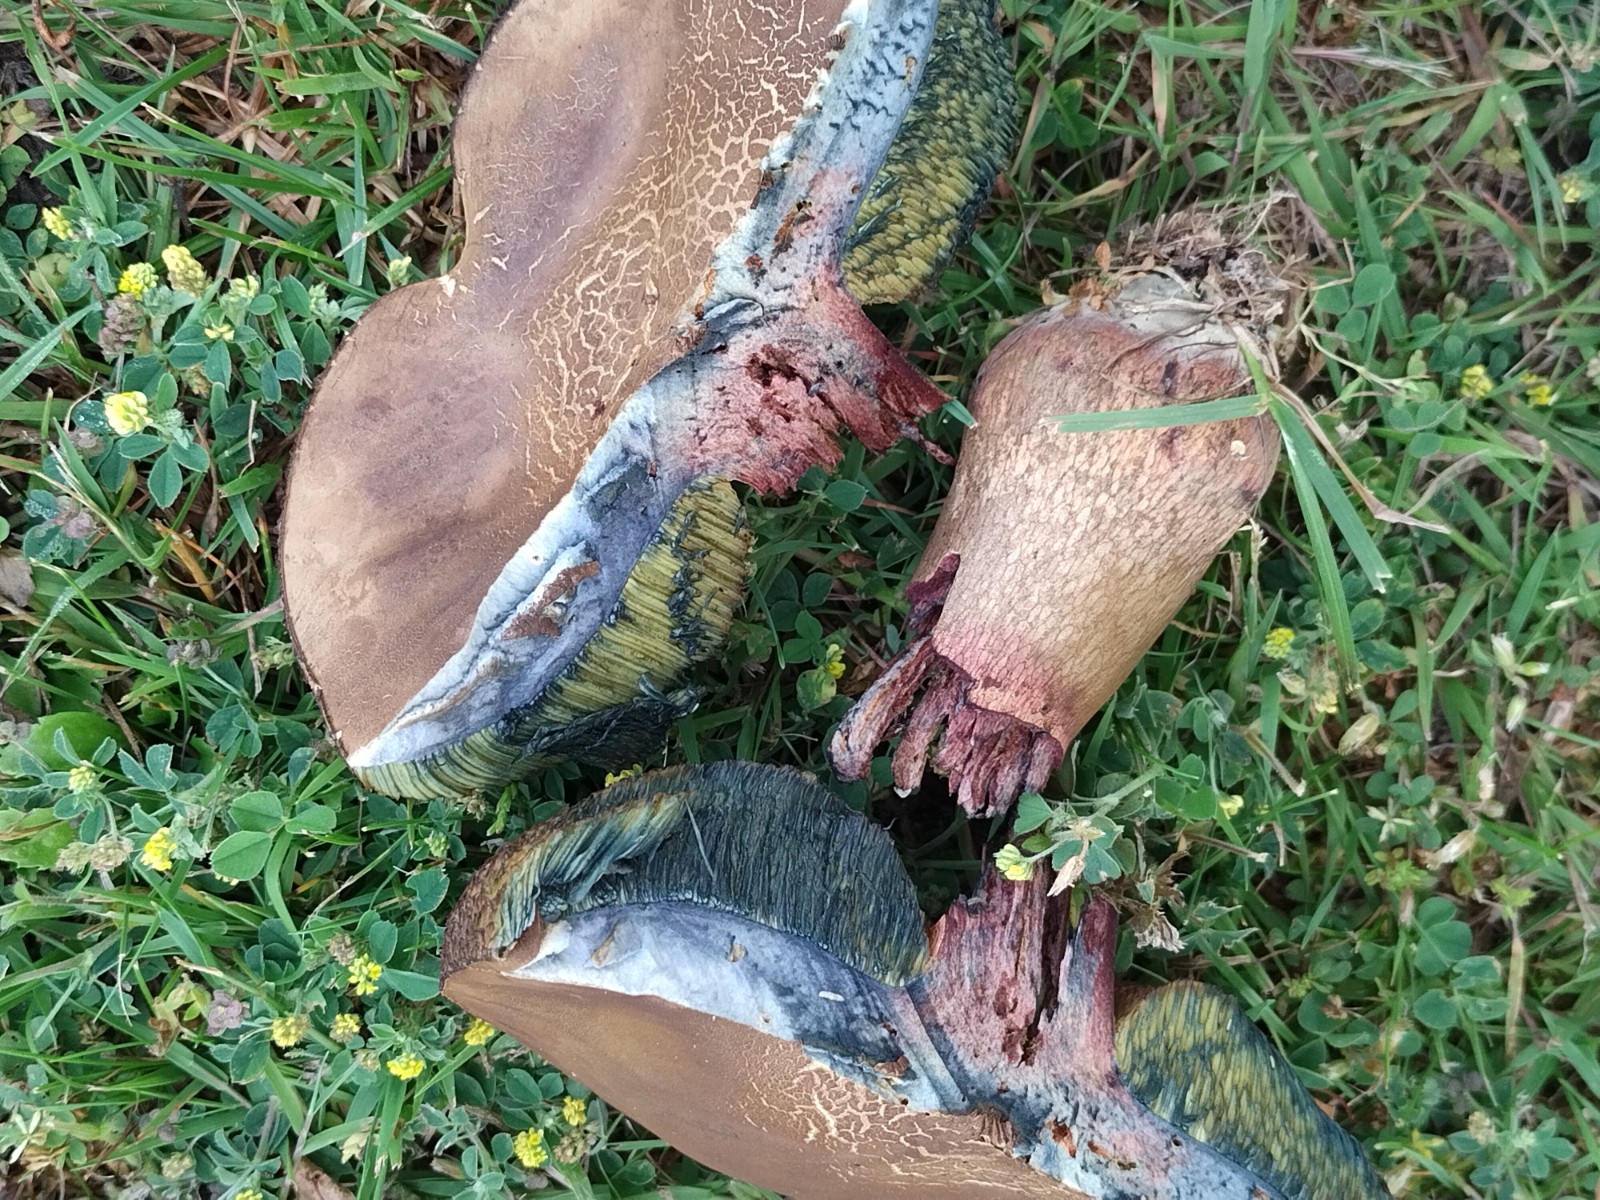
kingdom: Fungi
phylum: Basidiomycota
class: Agaricomycetes
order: Boletales
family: Boletaceae
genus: Suillellus
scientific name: Suillellus luridus
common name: netstokket indigorørhat
